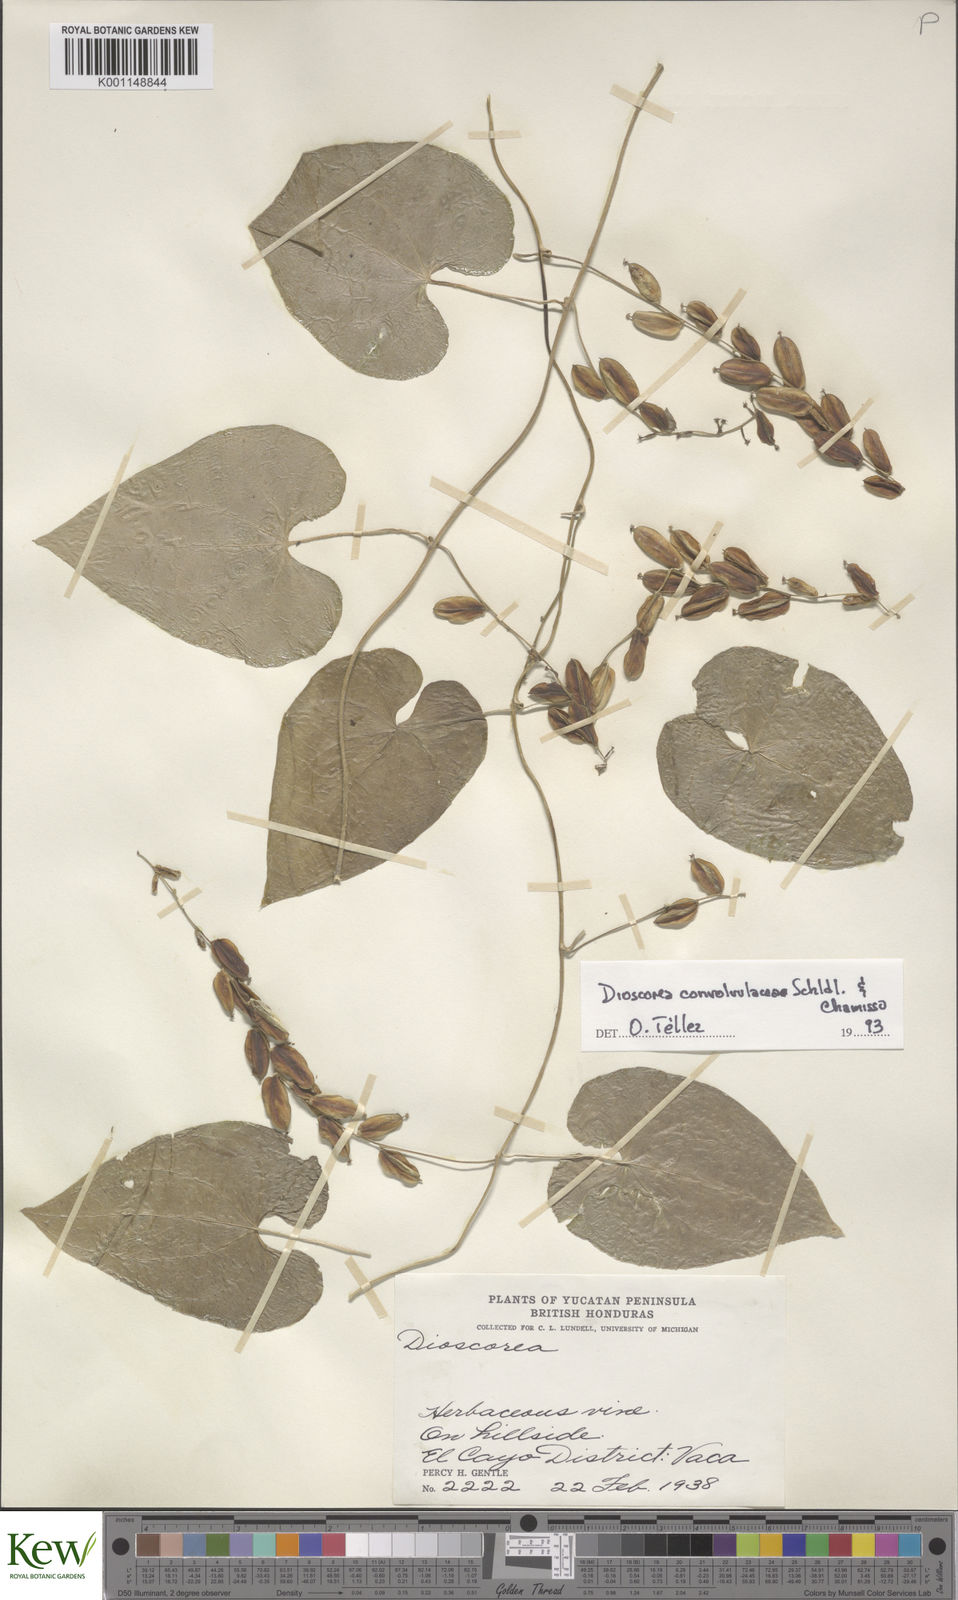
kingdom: Plantae
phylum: Tracheophyta
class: Liliopsida
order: Dioscoreales
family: Dioscoreaceae
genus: Dioscorea
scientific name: Dioscorea convolvulacea
